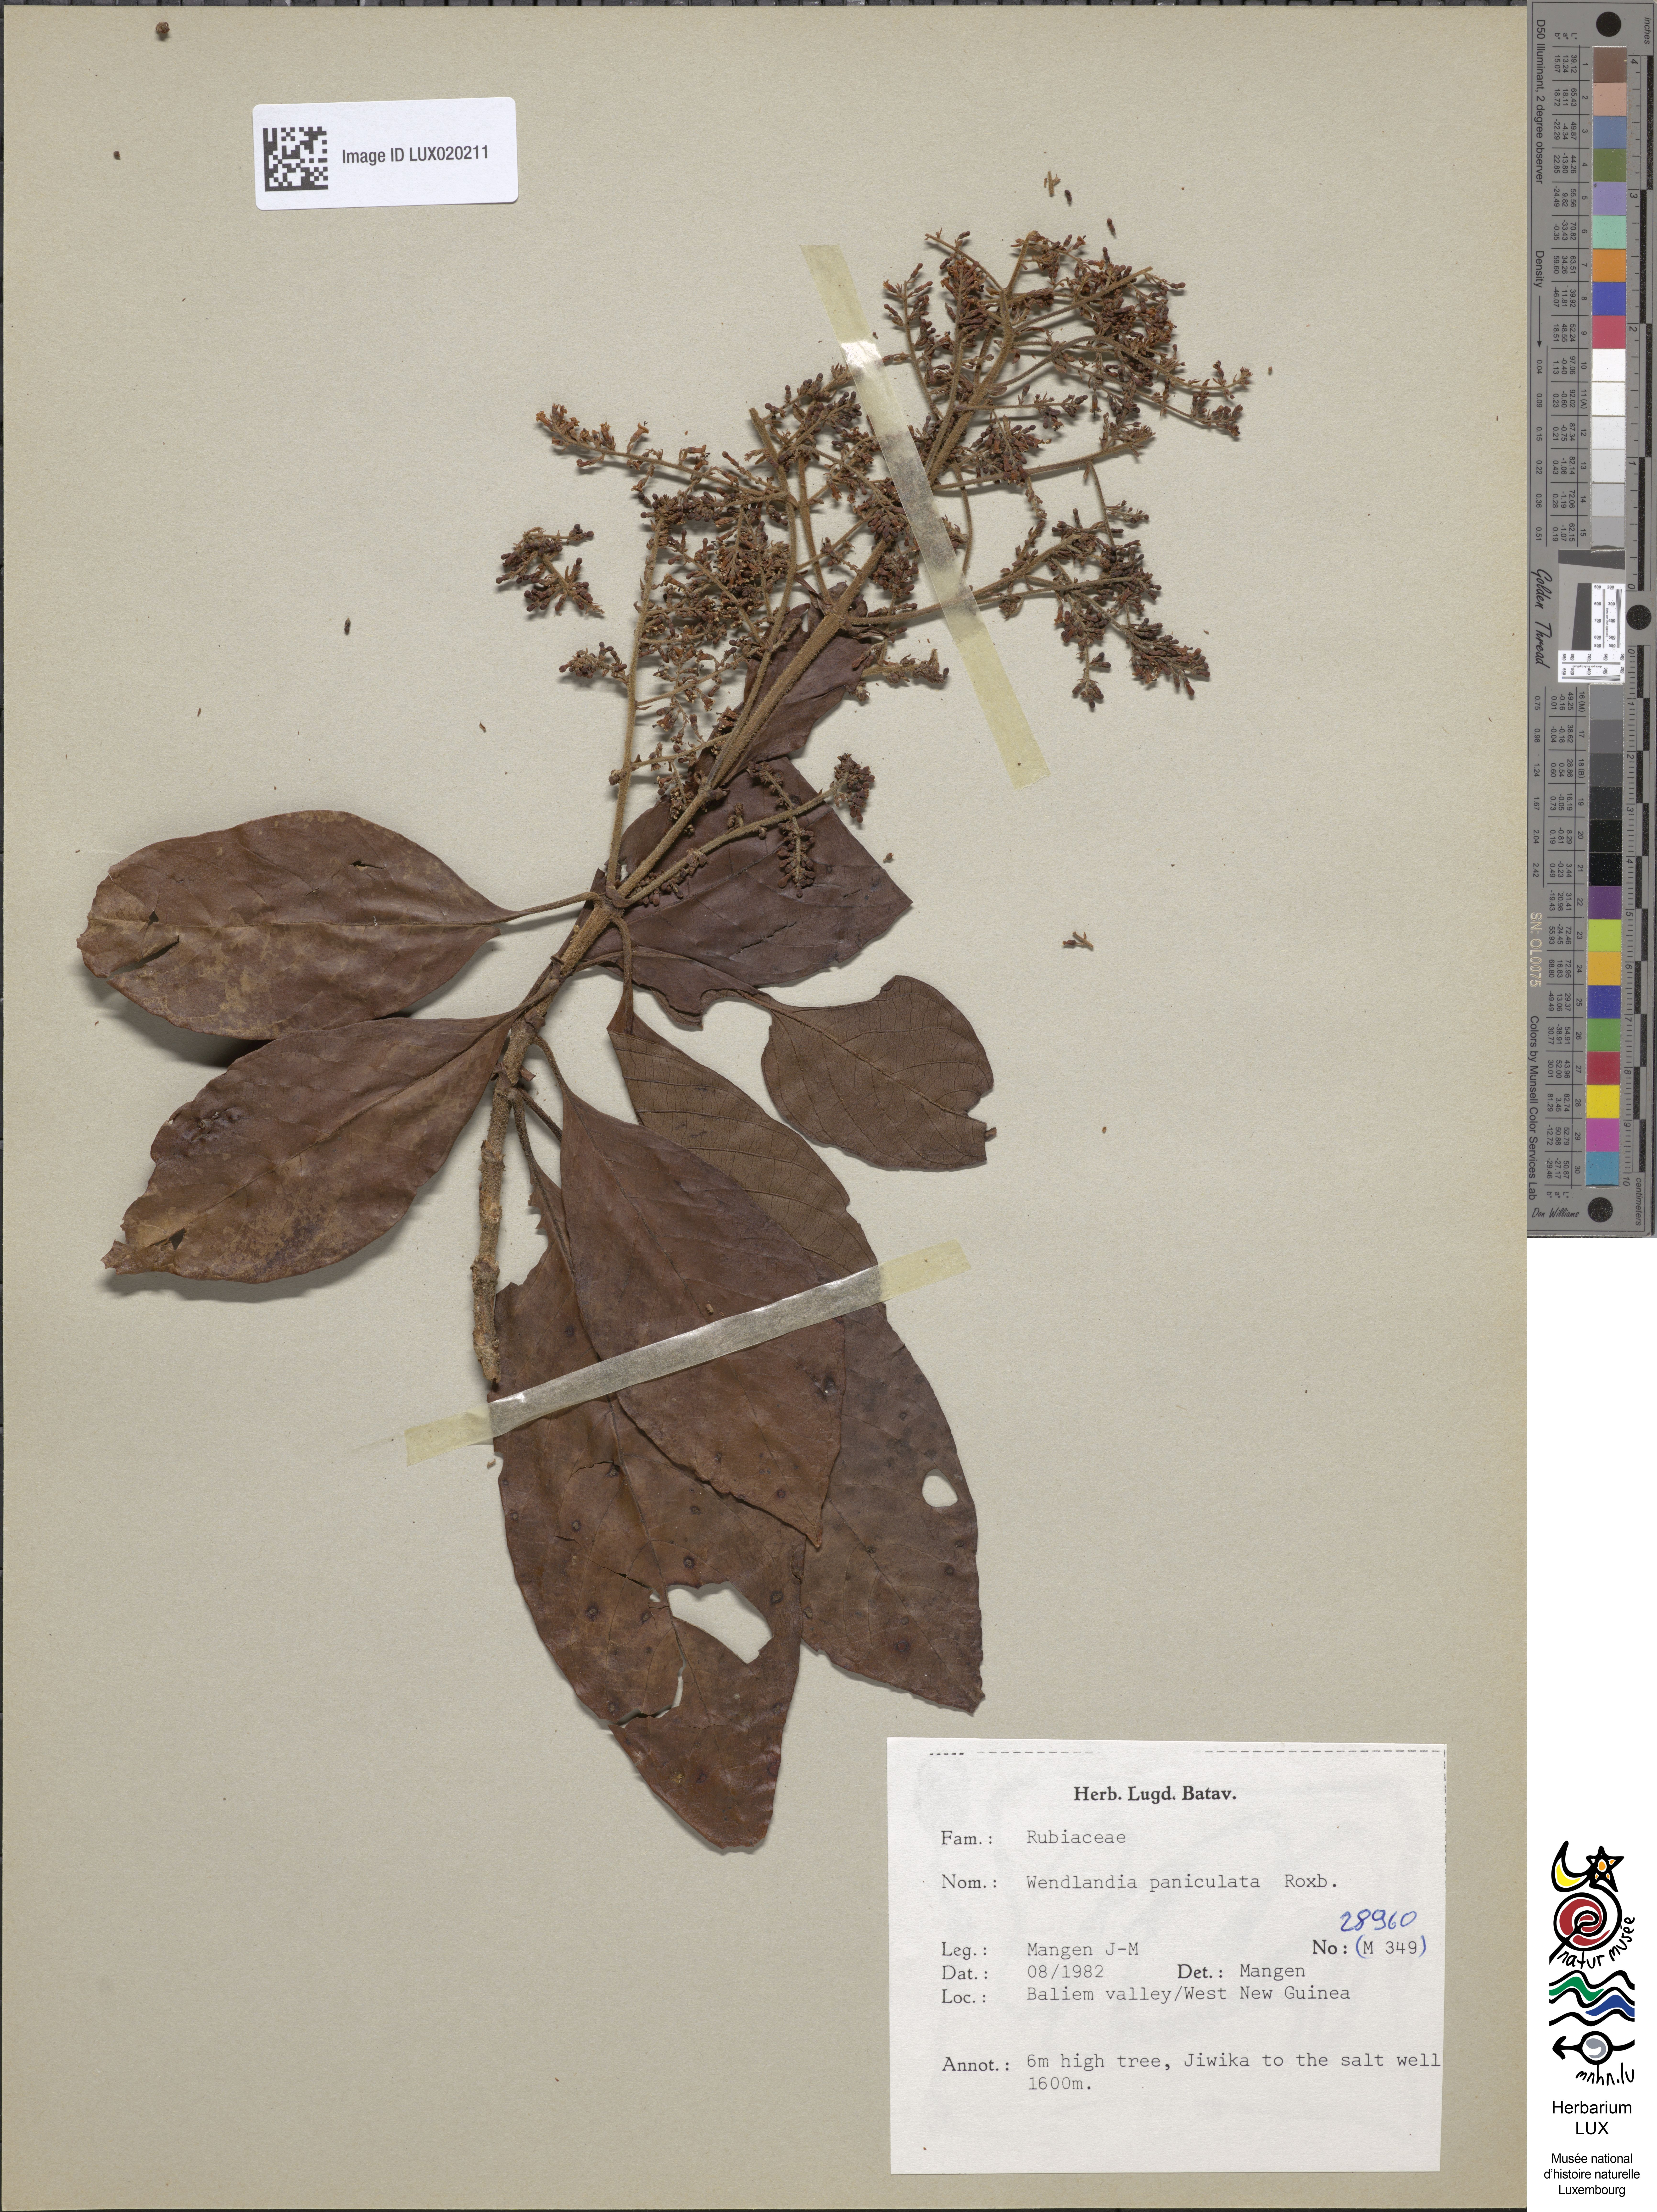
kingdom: Plantae
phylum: Tracheophyta
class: Magnoliopsida
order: Gentianales
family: Rubiaceae
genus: Wendlandia
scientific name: Wendlandia paniculata
